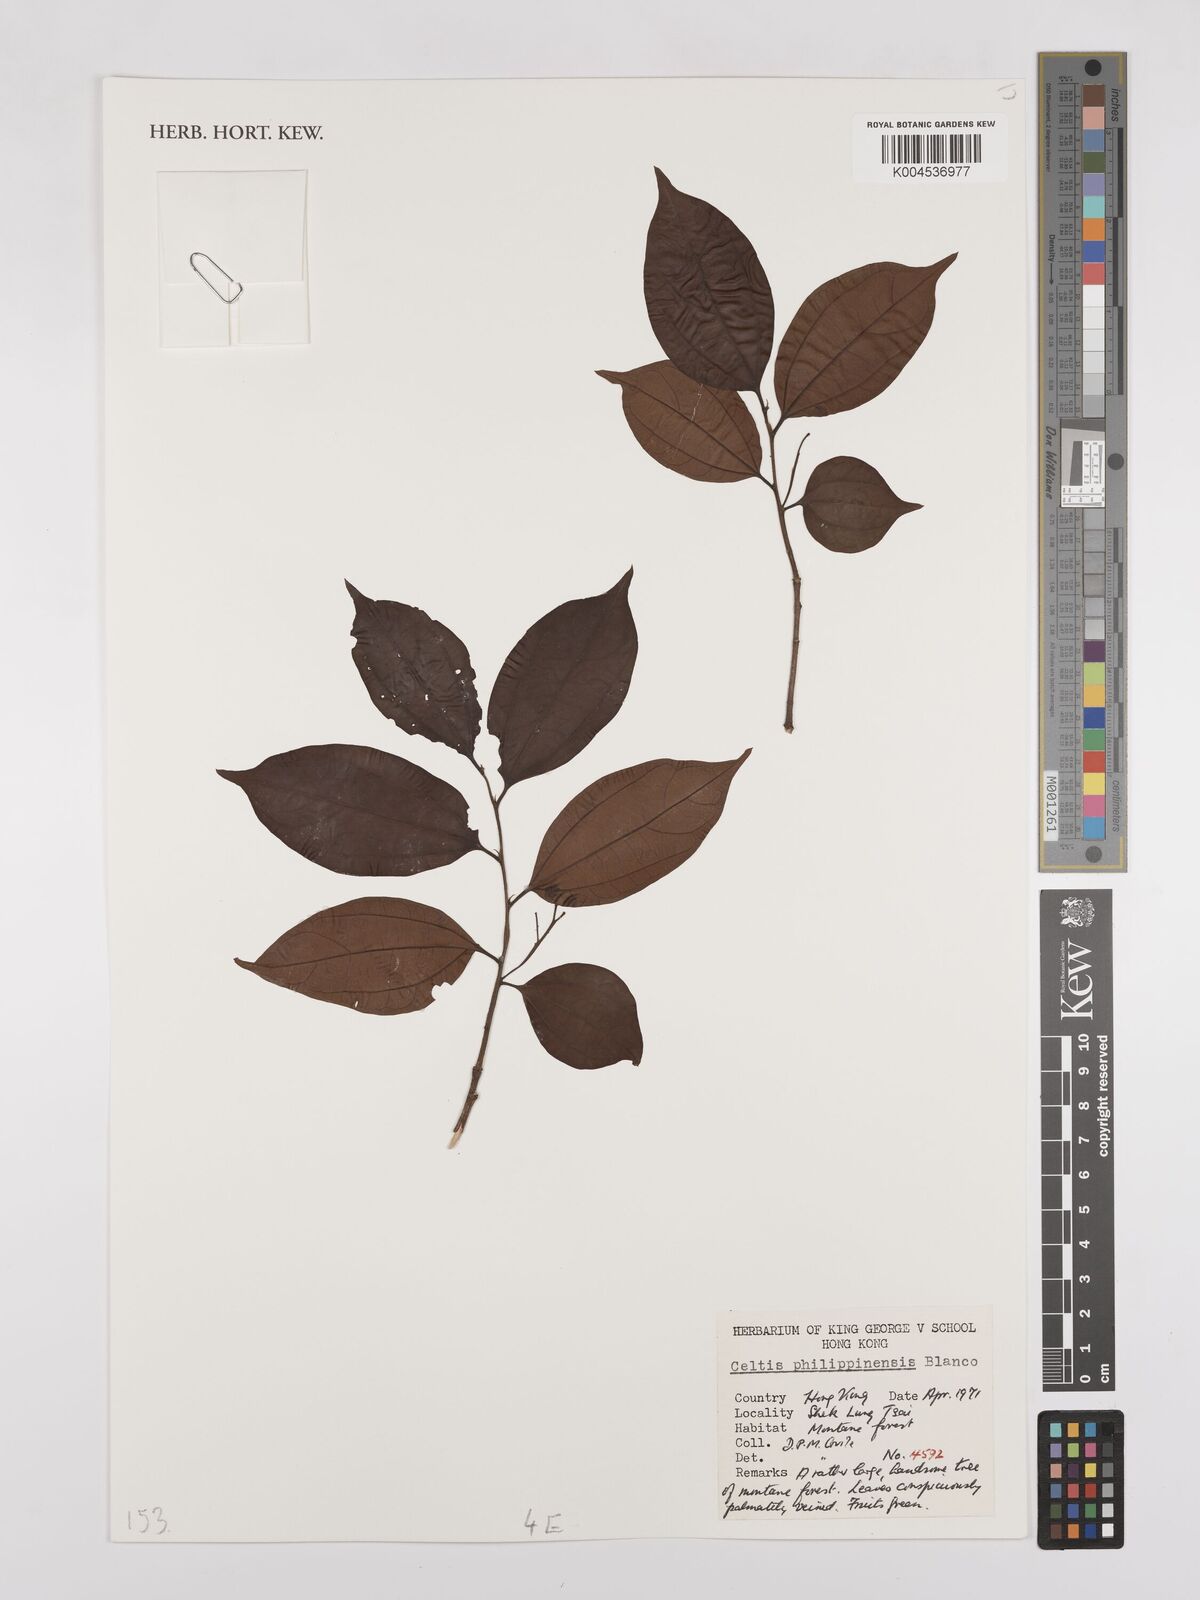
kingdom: Plantae
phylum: Tracheophyta
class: Magnoliopsida
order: Rosales
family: Cannabaceae
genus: Celtis
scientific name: Celtis philippensis
